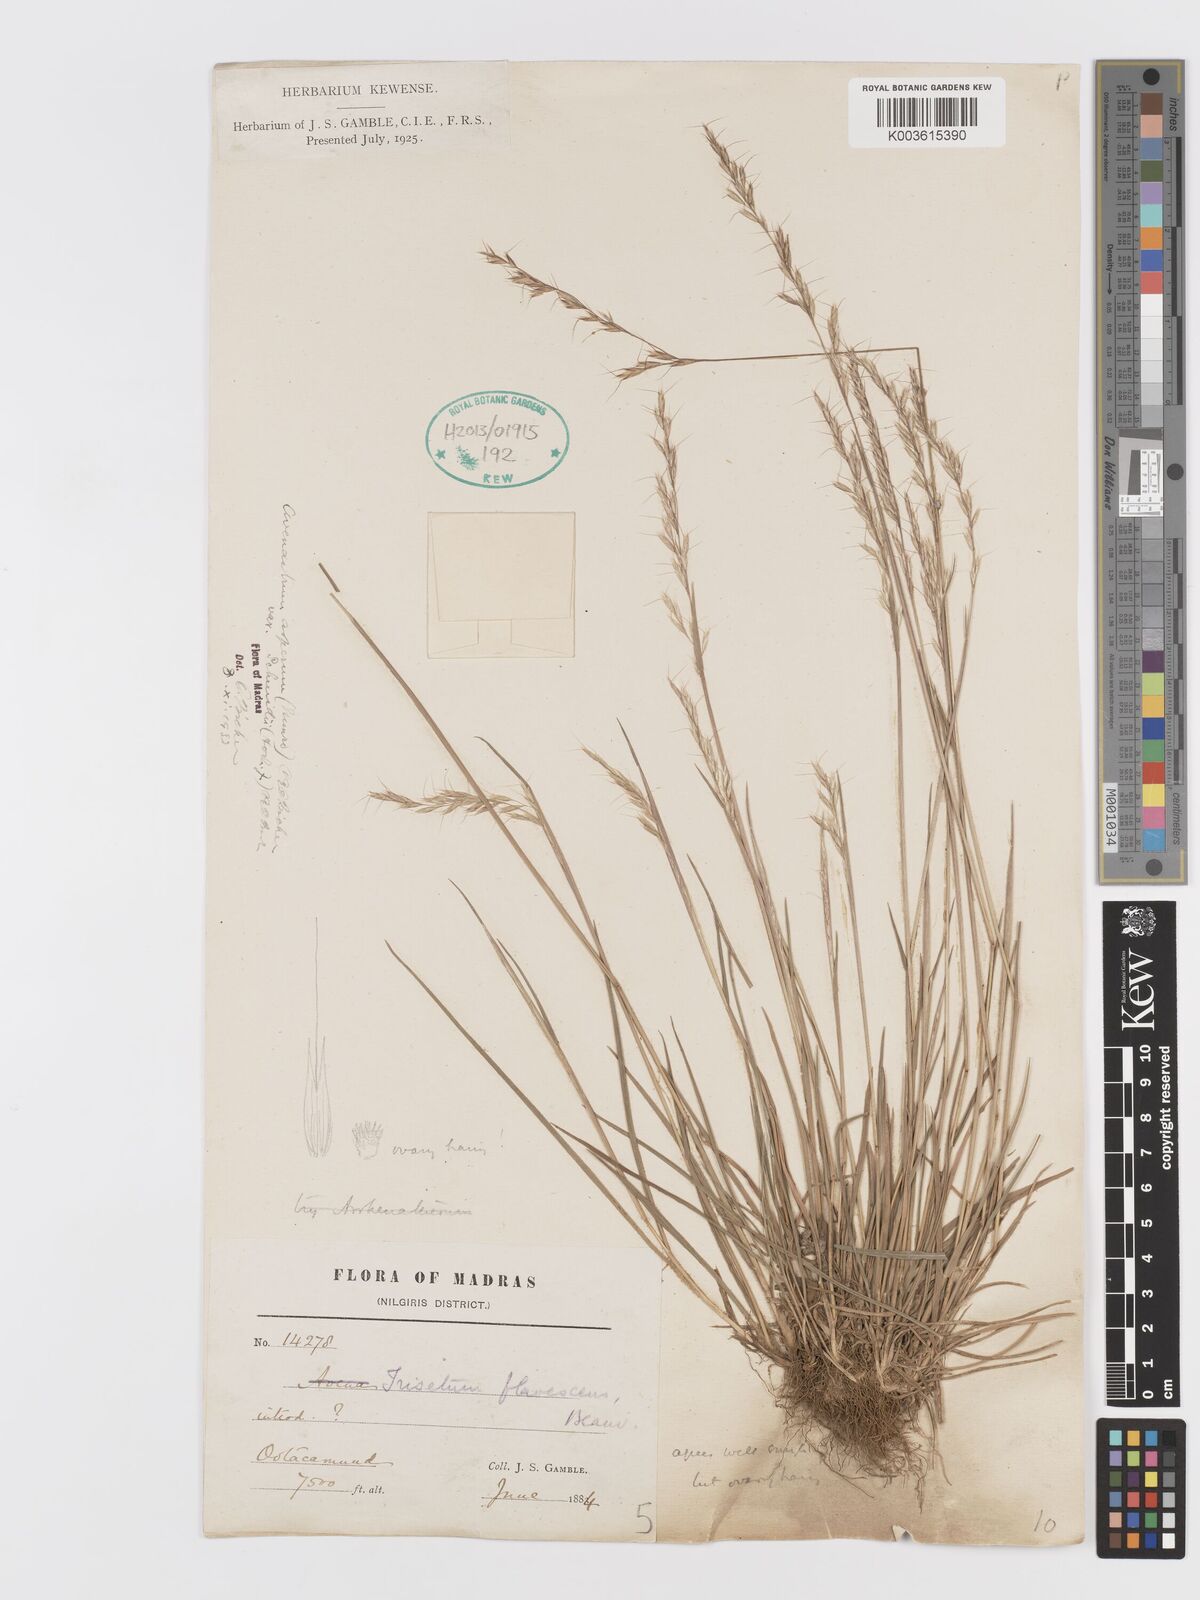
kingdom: Plantae
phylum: Tracheophyta
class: Liliopsida
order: Poales
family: Poaceae
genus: Trisetum
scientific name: Trisetum flavescens
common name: Yellow oat-grass
